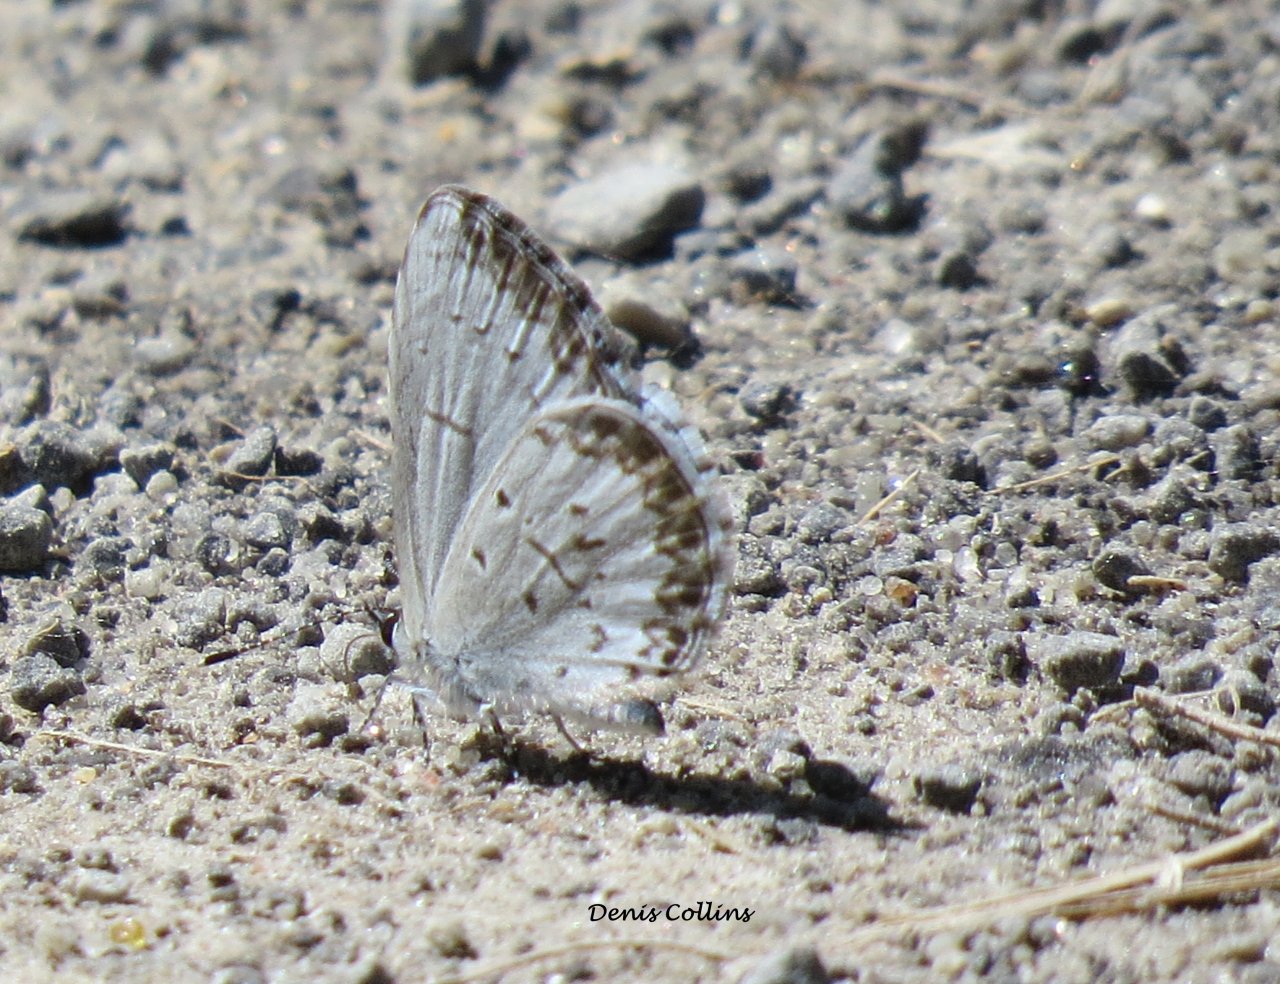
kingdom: Animalia
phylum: Arthropoda
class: Insecta
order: Lepidoptera
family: Lycaenidae
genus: Celastrina
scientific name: Celastrina lucia
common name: Northern Spring Azure
